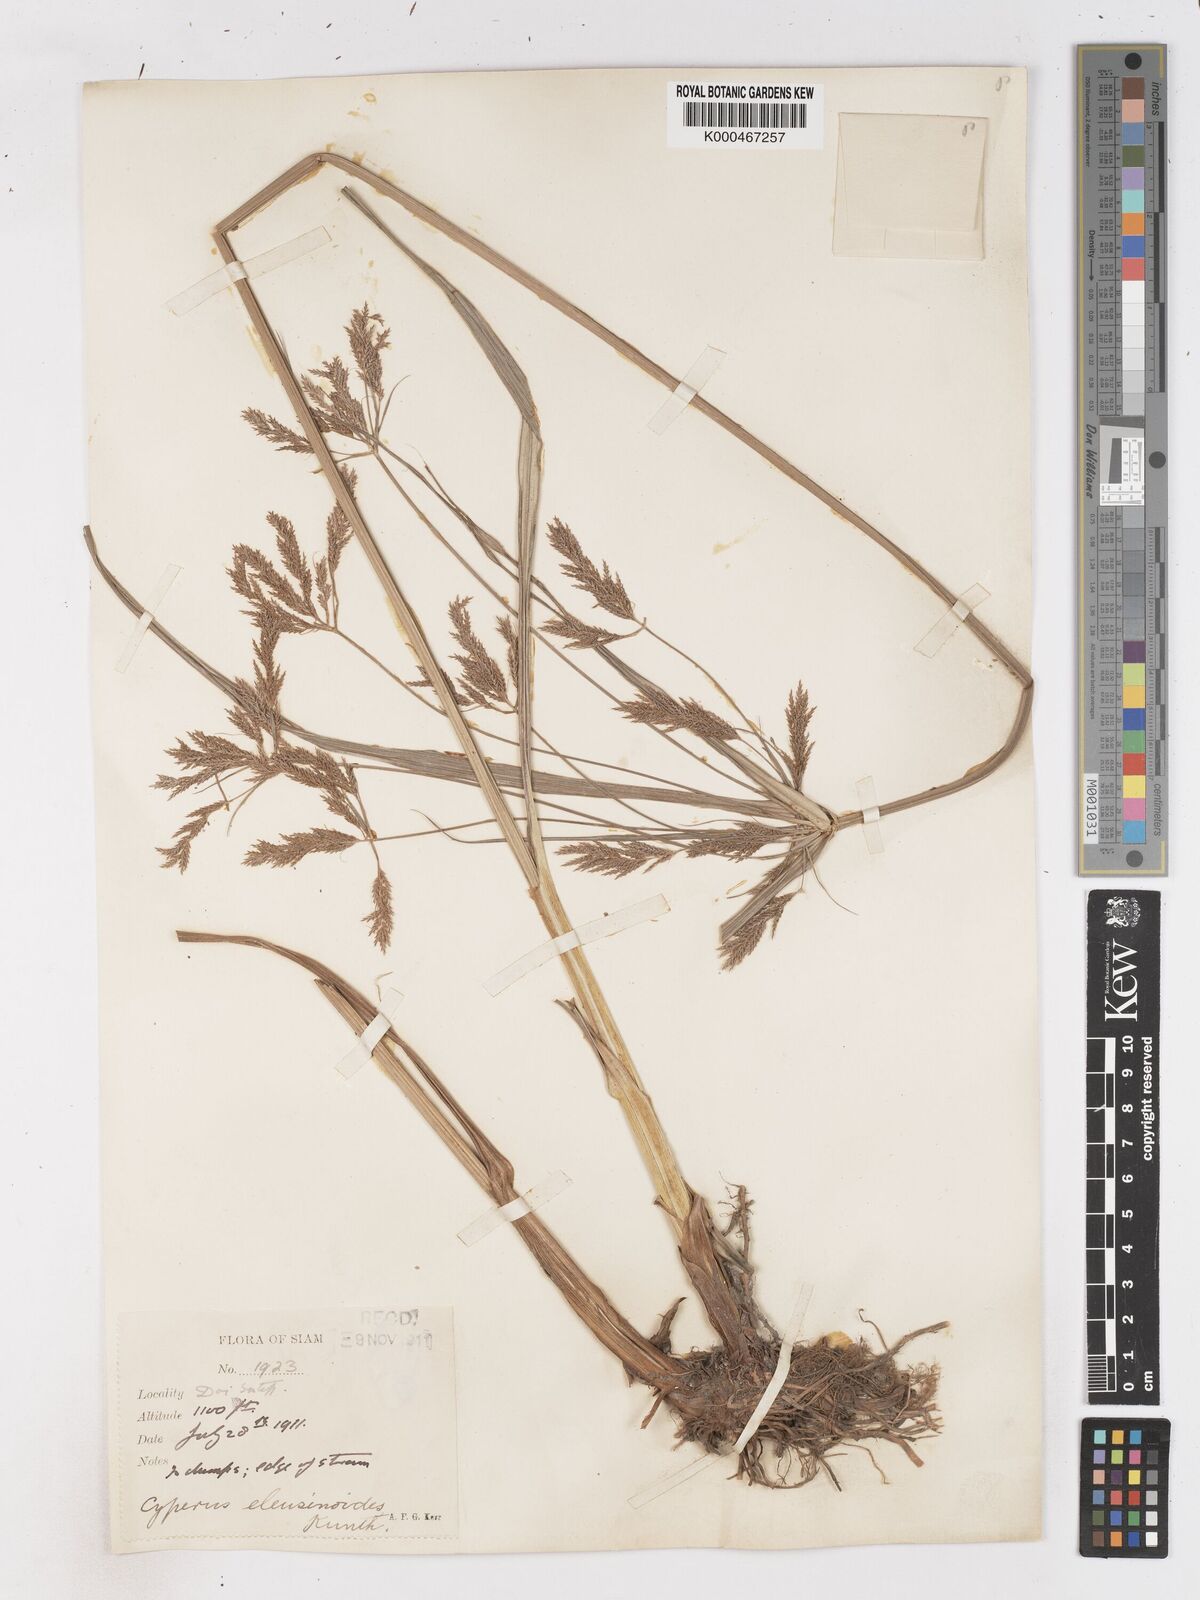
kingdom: Plantae
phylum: Tracheophyta
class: Liliopsida
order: Poales
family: Cyperaceae
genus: Cyperus
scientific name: Cyperus nutans
